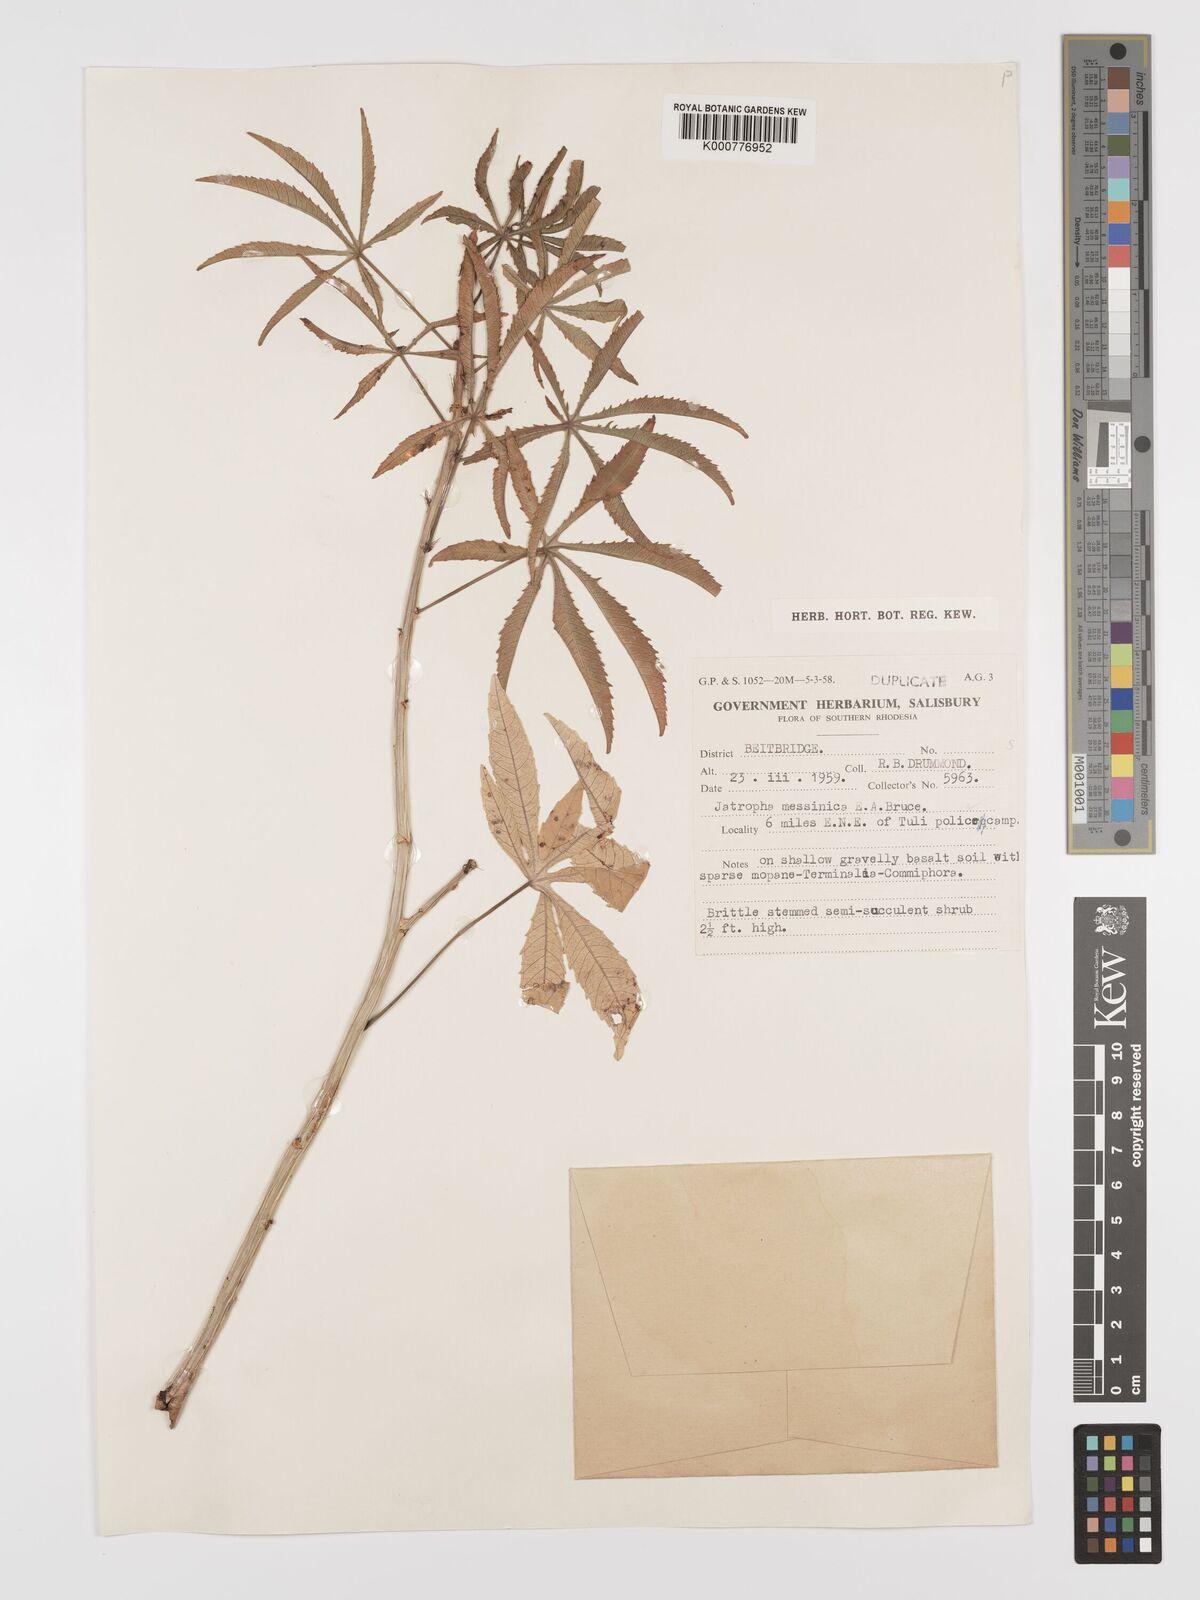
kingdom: Plantae
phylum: Tracheophyta
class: Magnoliopsida
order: Malpighiales
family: Euphorbiaceae
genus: Jatropha
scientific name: Jatropha spicata
